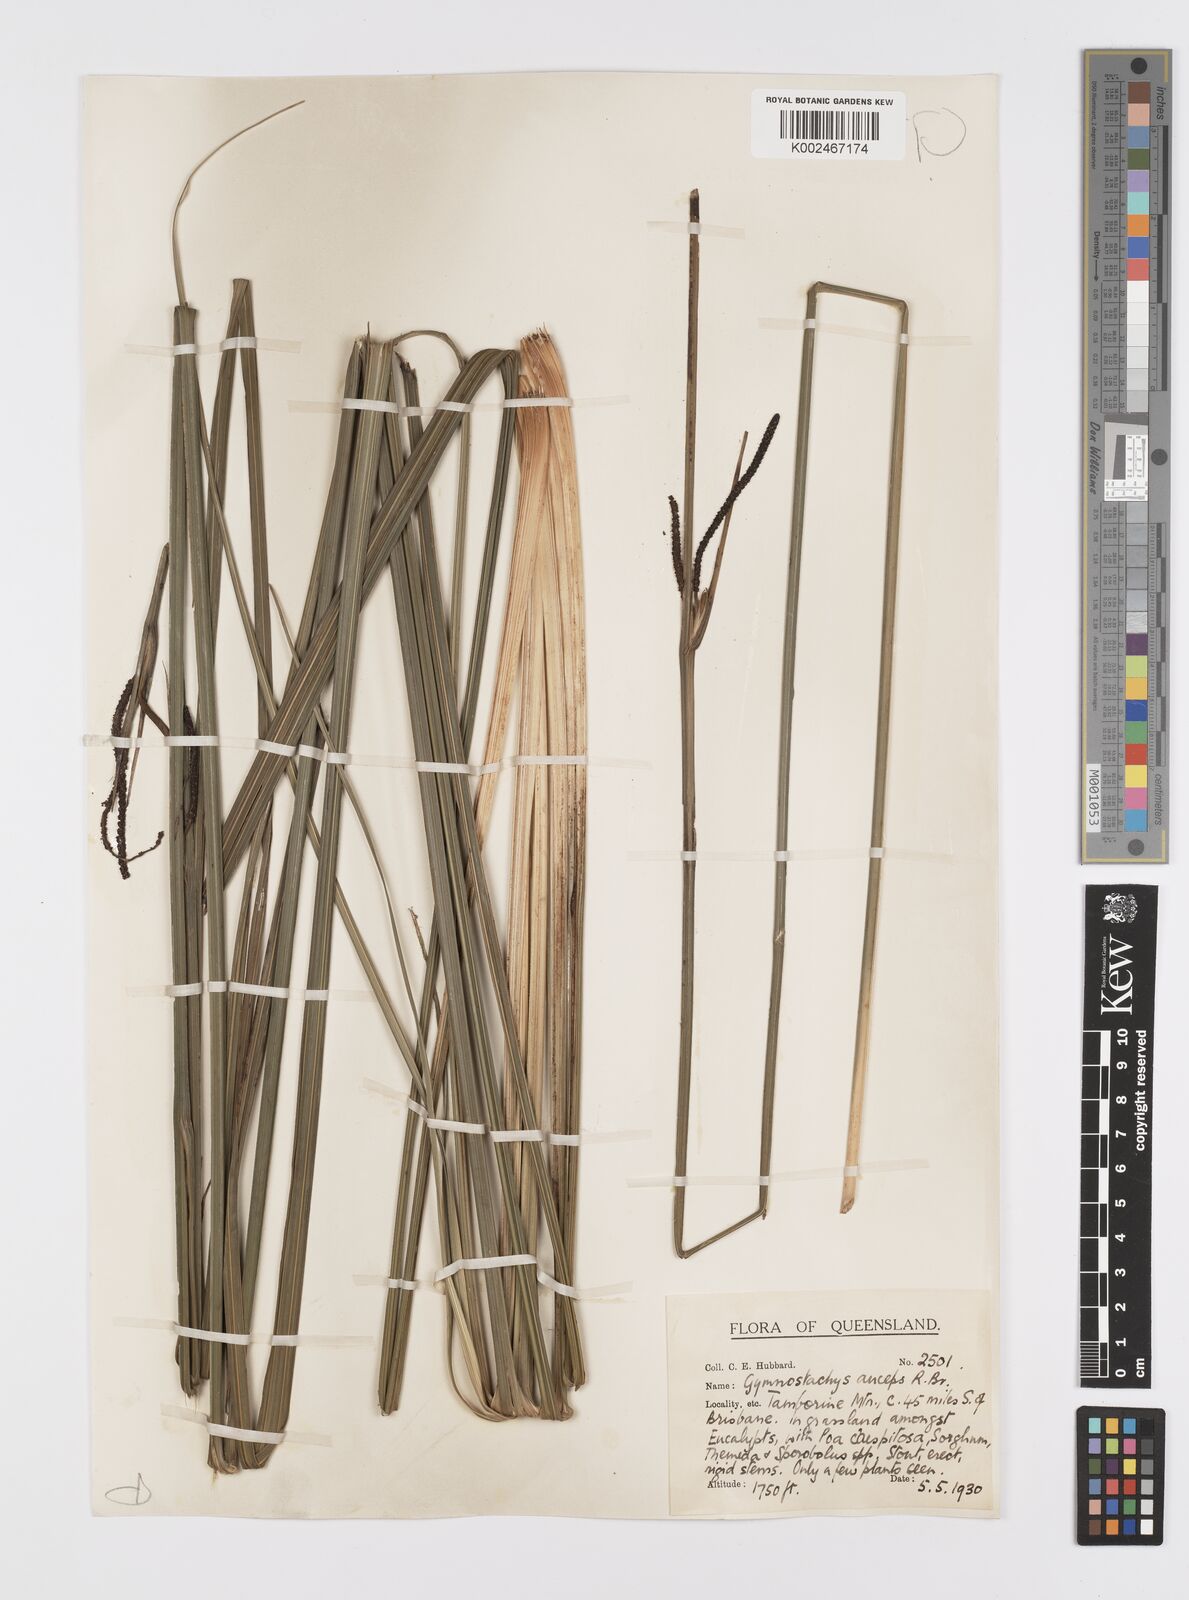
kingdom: Plantae
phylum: Tracheophyta
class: Liliopsida
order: Alismatales
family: Araceae
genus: Gymnostachys
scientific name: Gymnostachys anceps
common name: Settler's-flax
